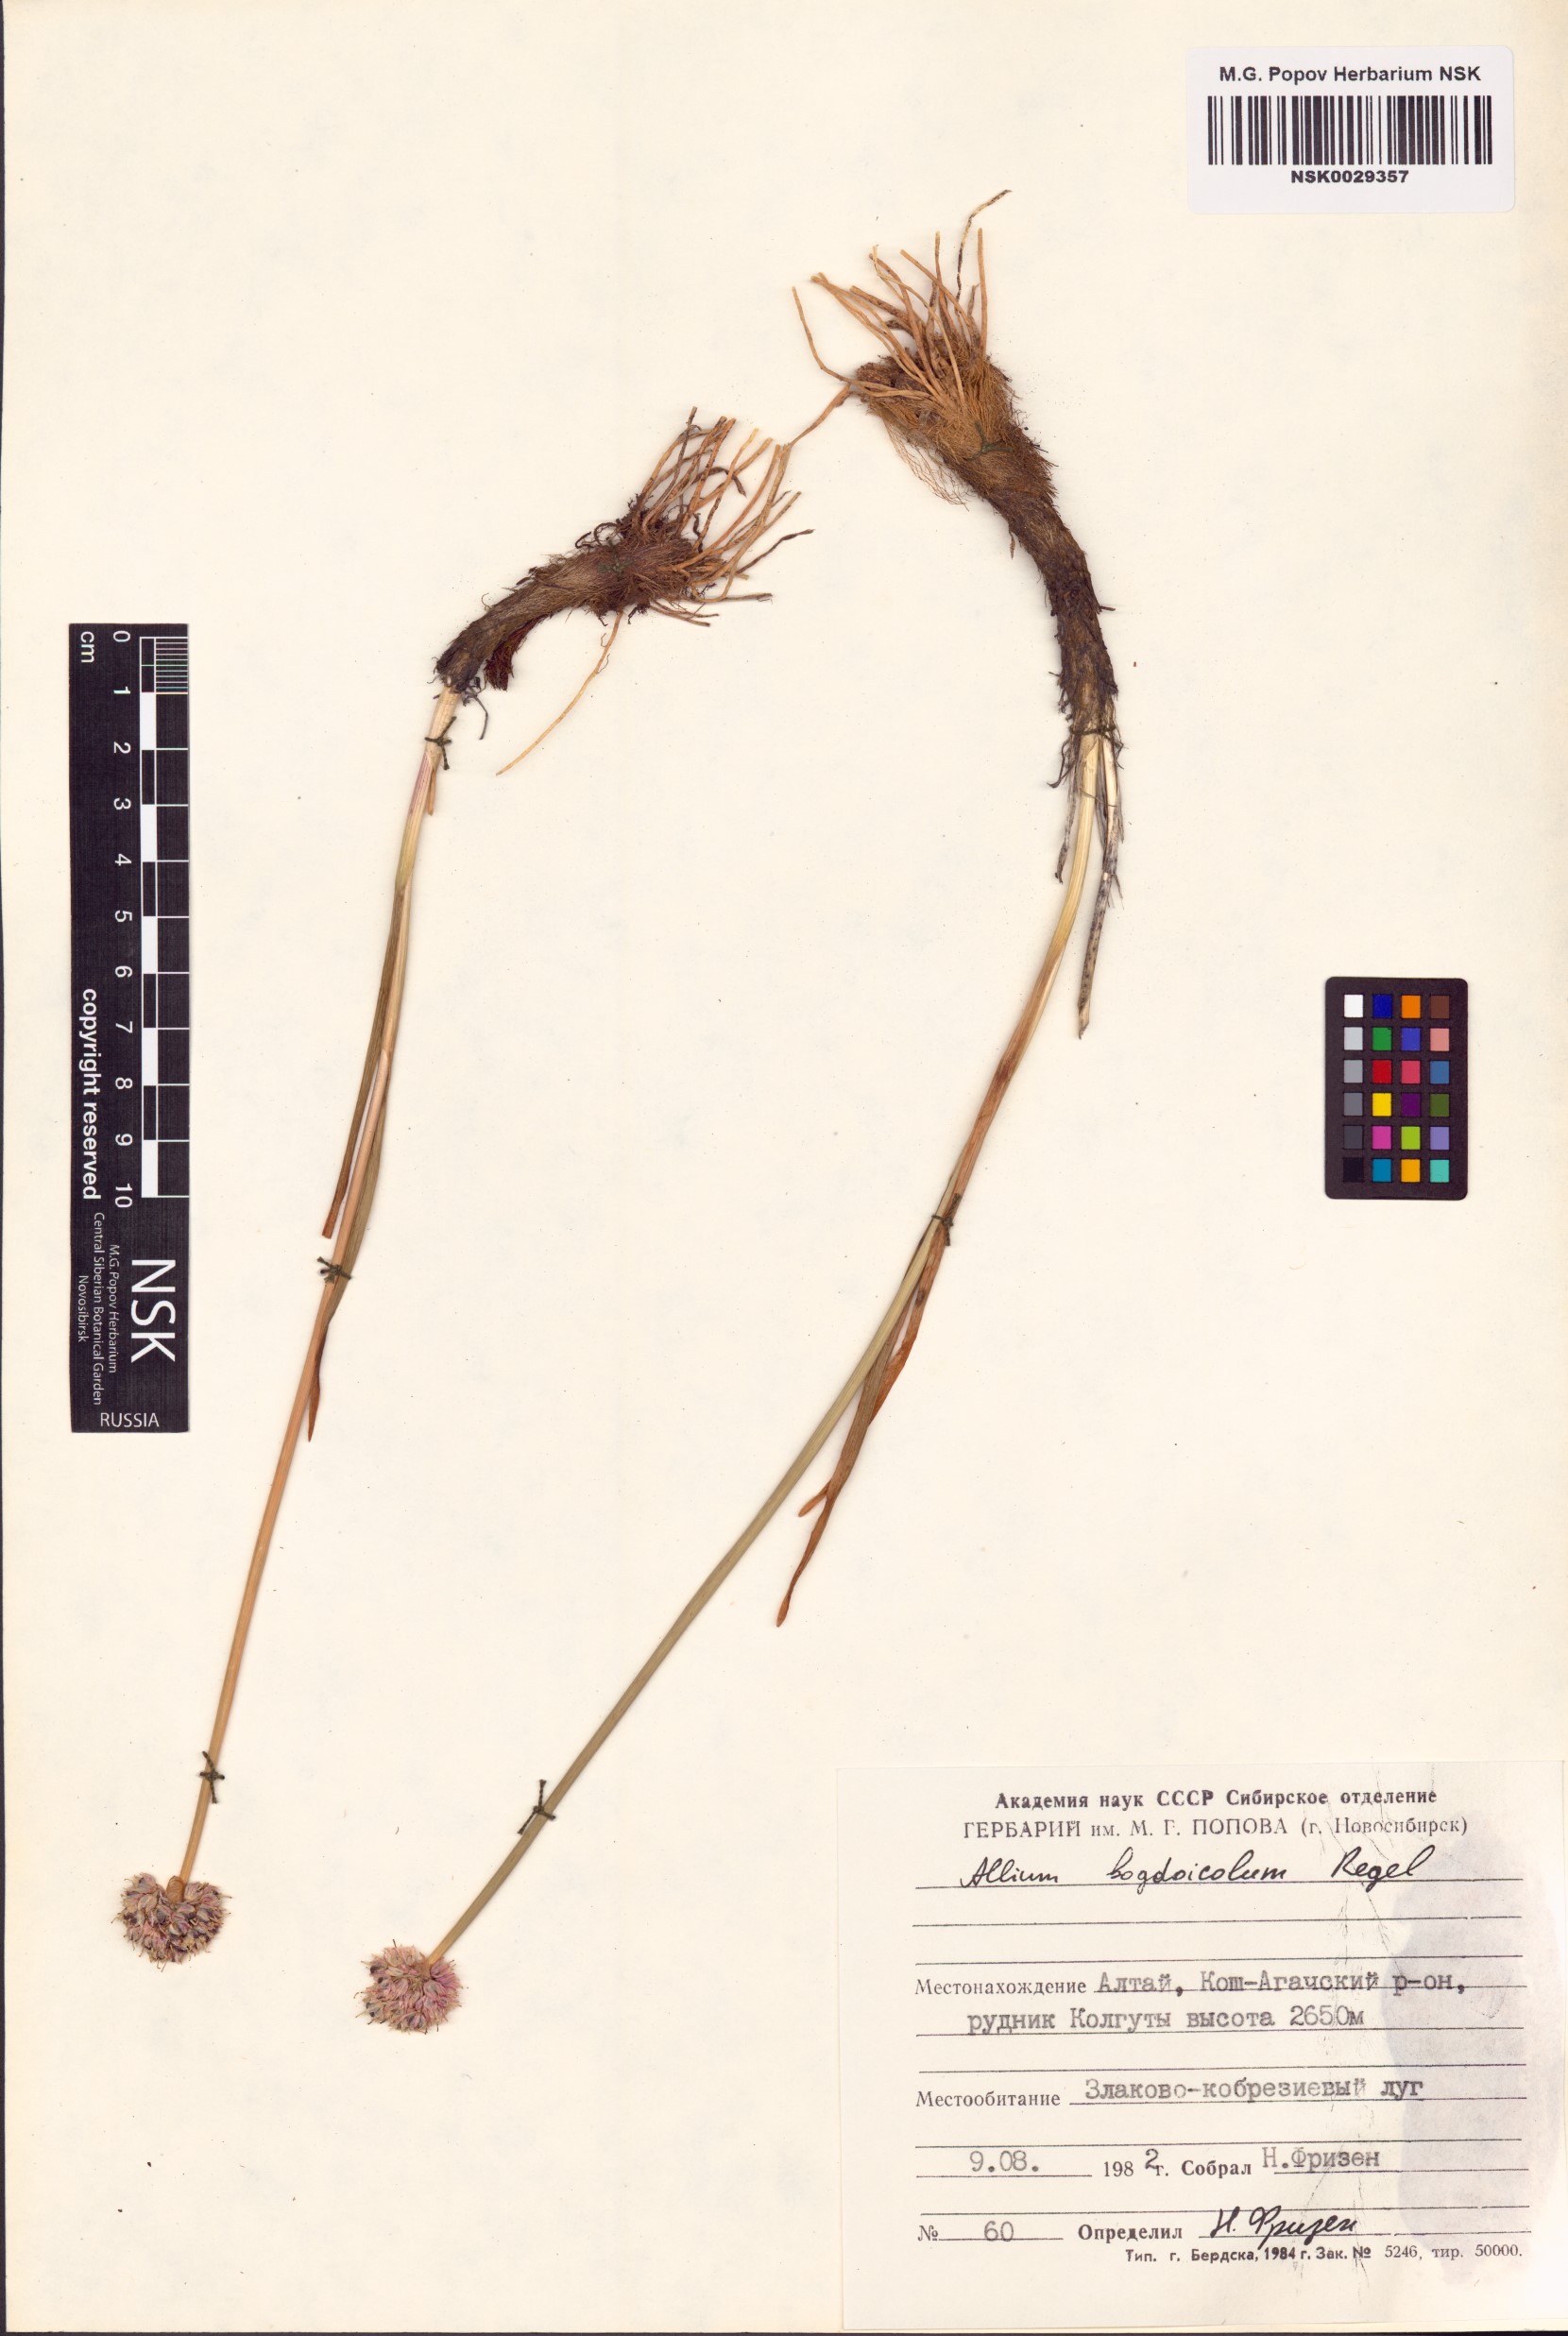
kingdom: Plantae
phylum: Tracheophyta
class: Liliopsida
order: Asparagales
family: Amaryllidaceae
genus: Allium
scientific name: Allium schrenkii
